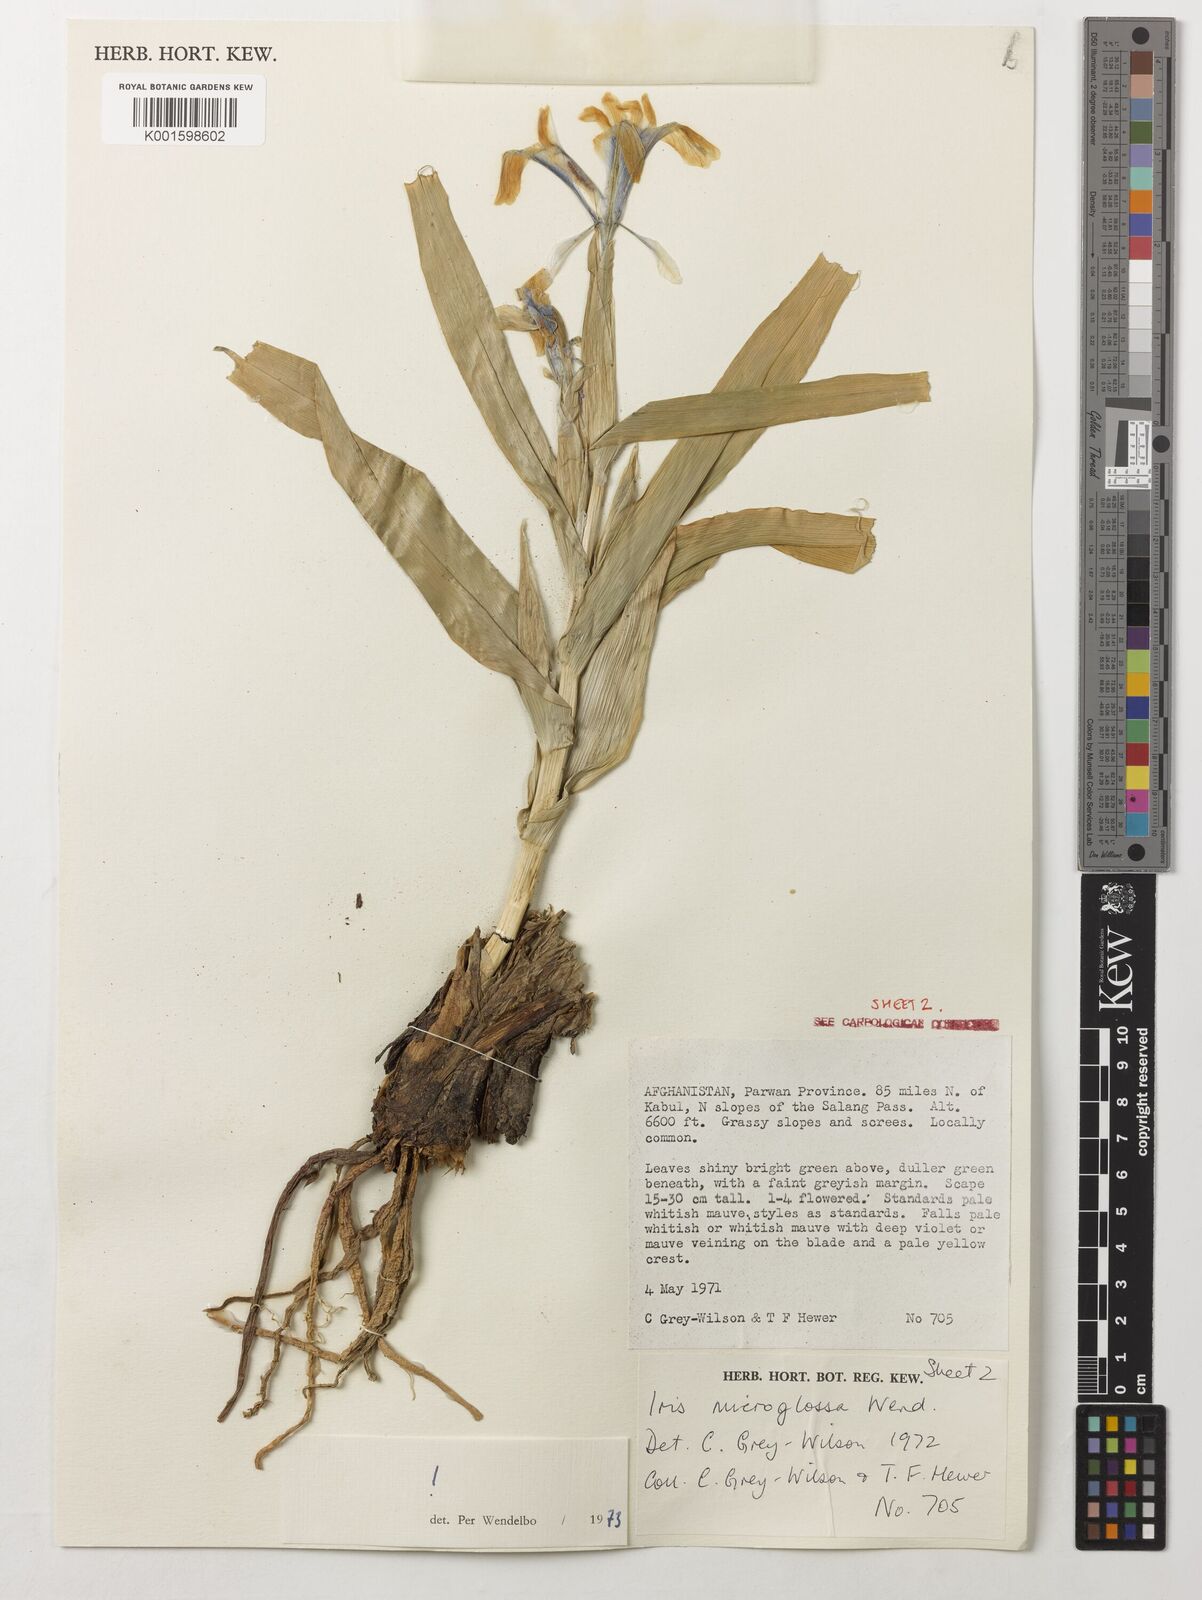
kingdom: Plantae
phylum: Tracheophyta
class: Liliopsida
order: Asparagales
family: Iridaceae
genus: Iris
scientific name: Iris microglossa
